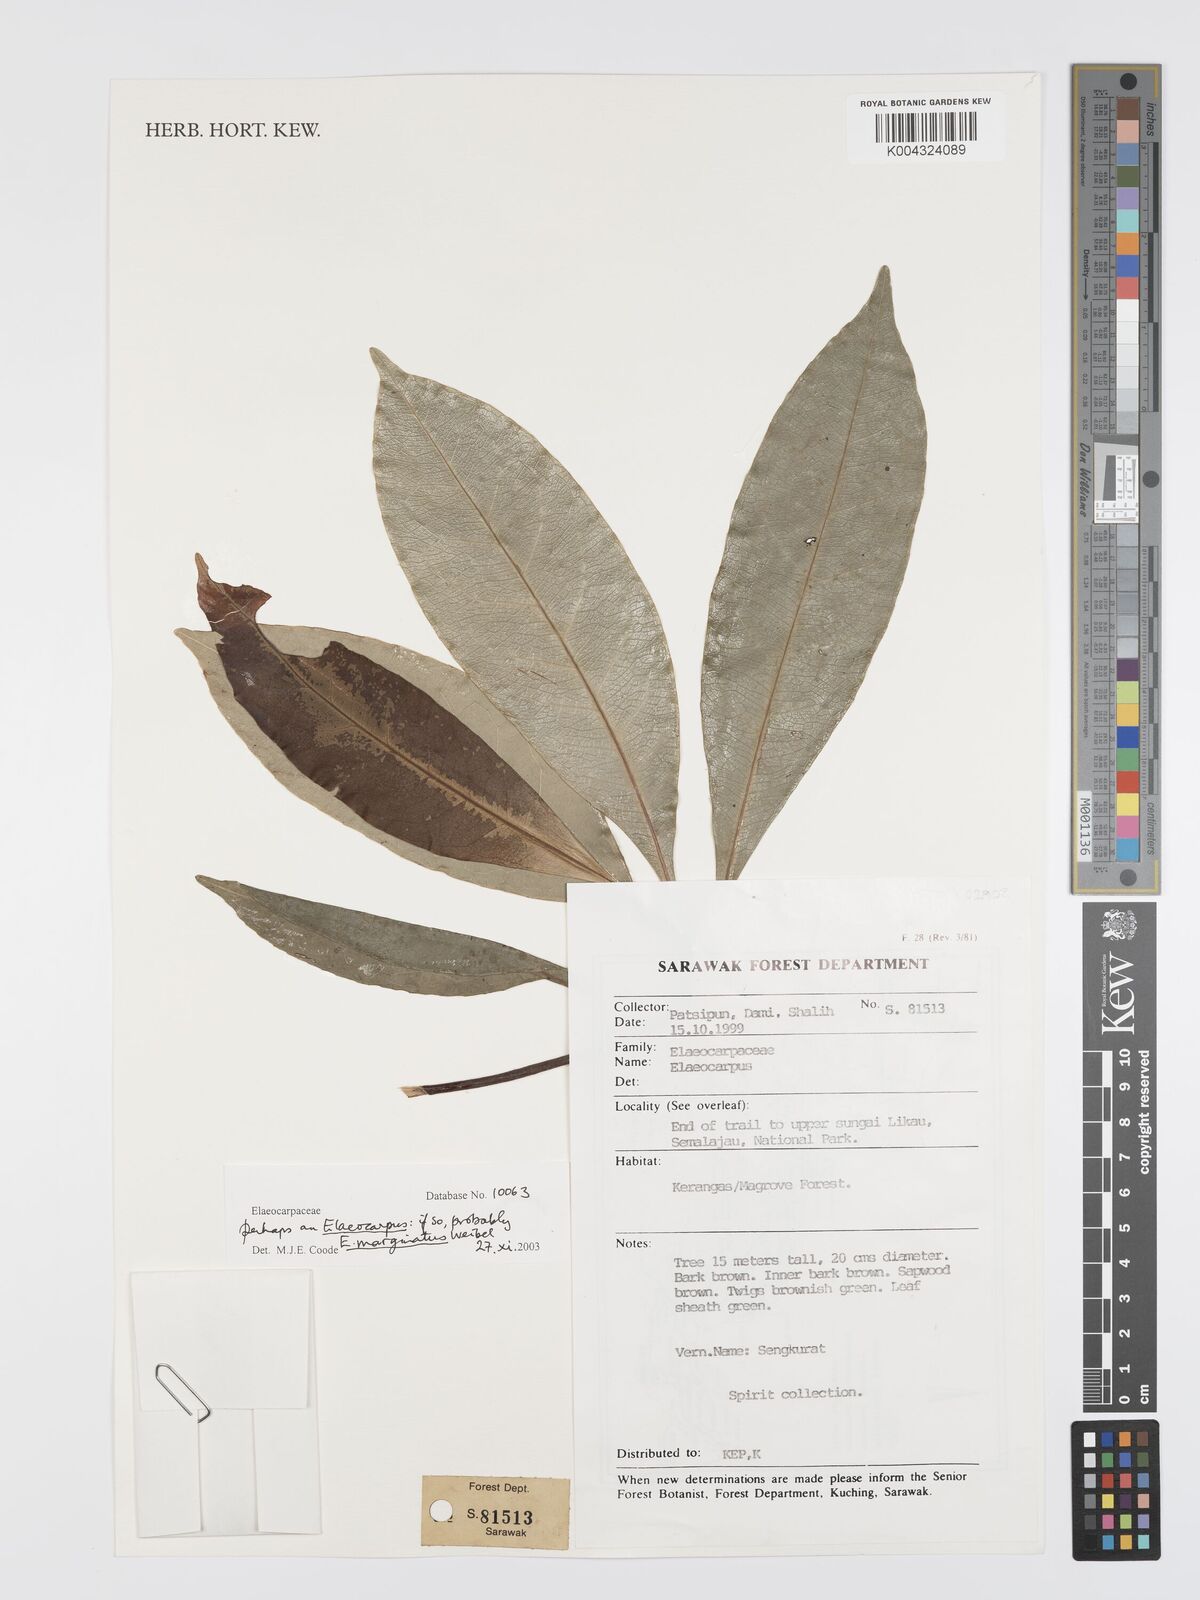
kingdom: Plantae
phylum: Tracheophyta
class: Magnoliopsida
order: Oxalidales
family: Elaeocarpaceae
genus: Elaeocarpus
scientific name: Elaeocarpus marginatus
